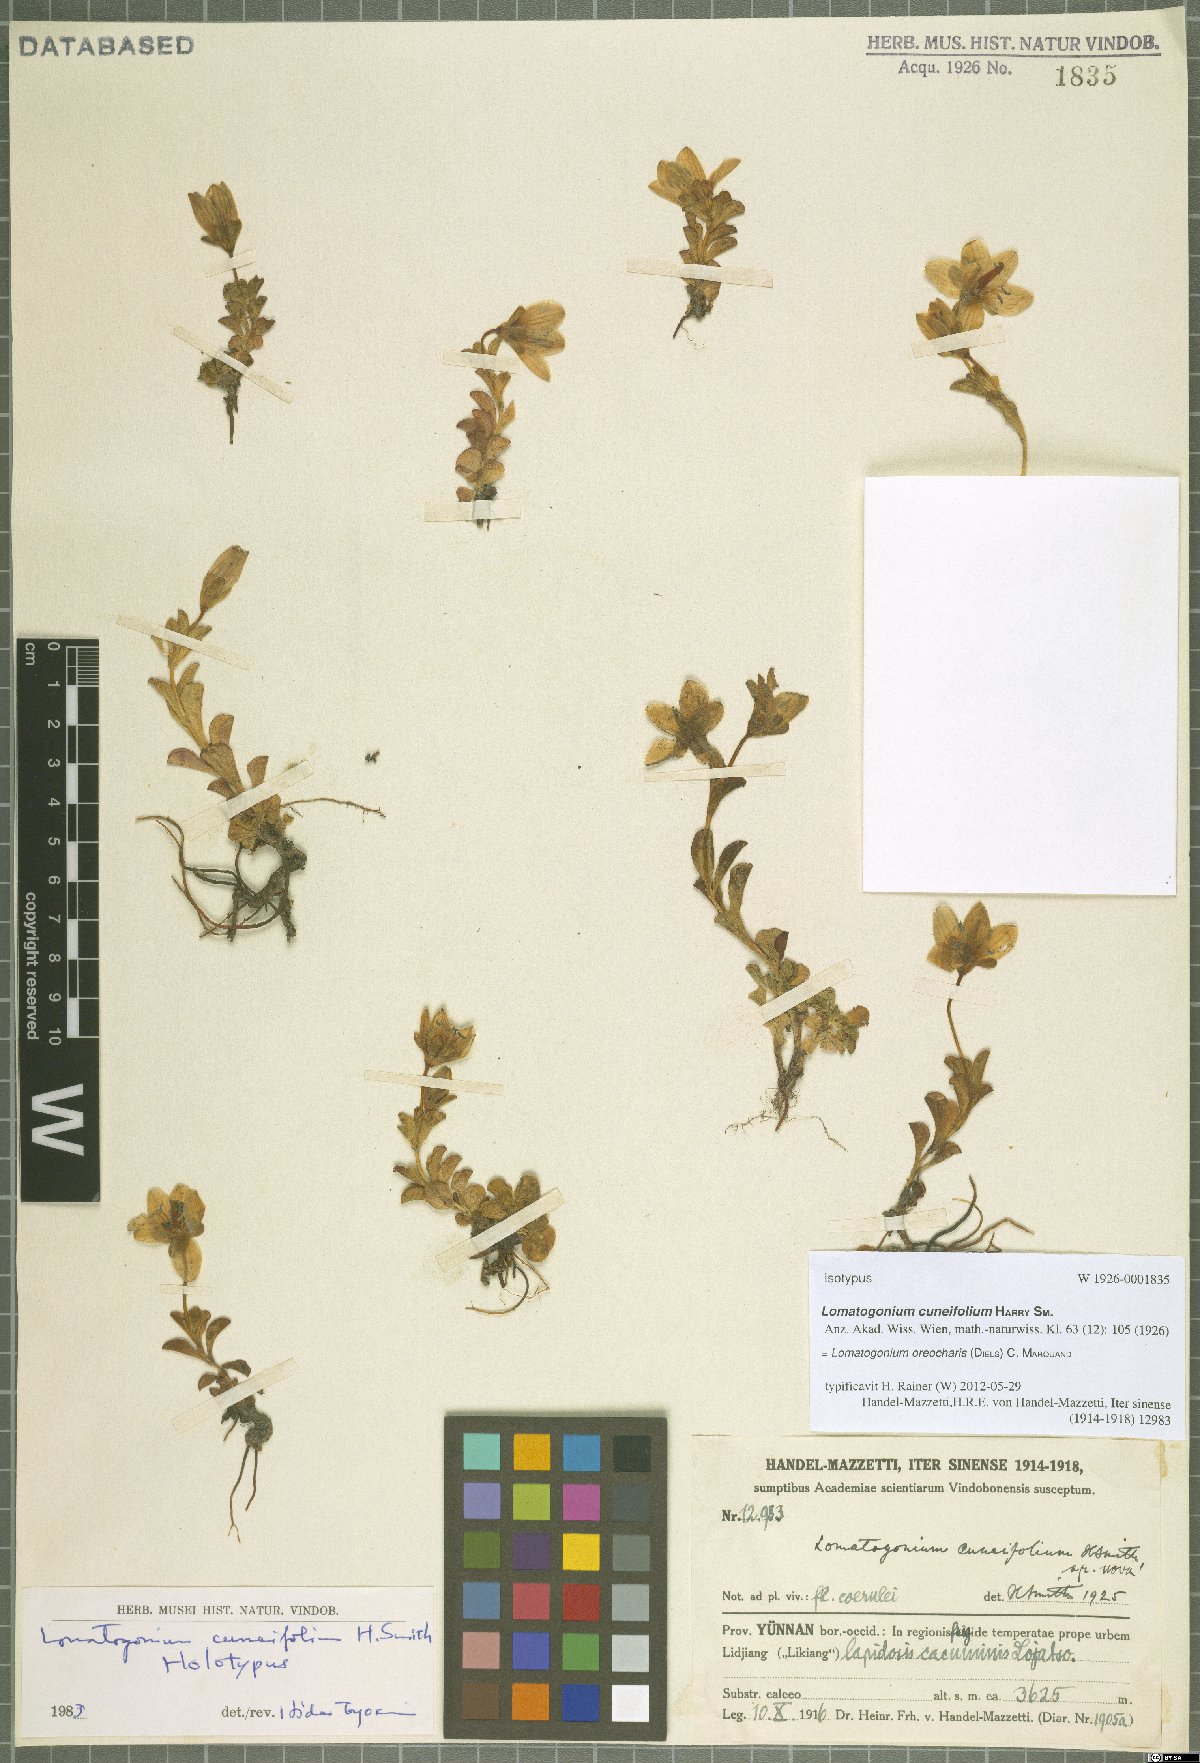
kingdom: Plantae
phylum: Tracheophyta
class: Magnoliopsida
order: Gentianales
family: Gentianaceae
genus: Lomatogonium
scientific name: Lomatogonium oreocharis
